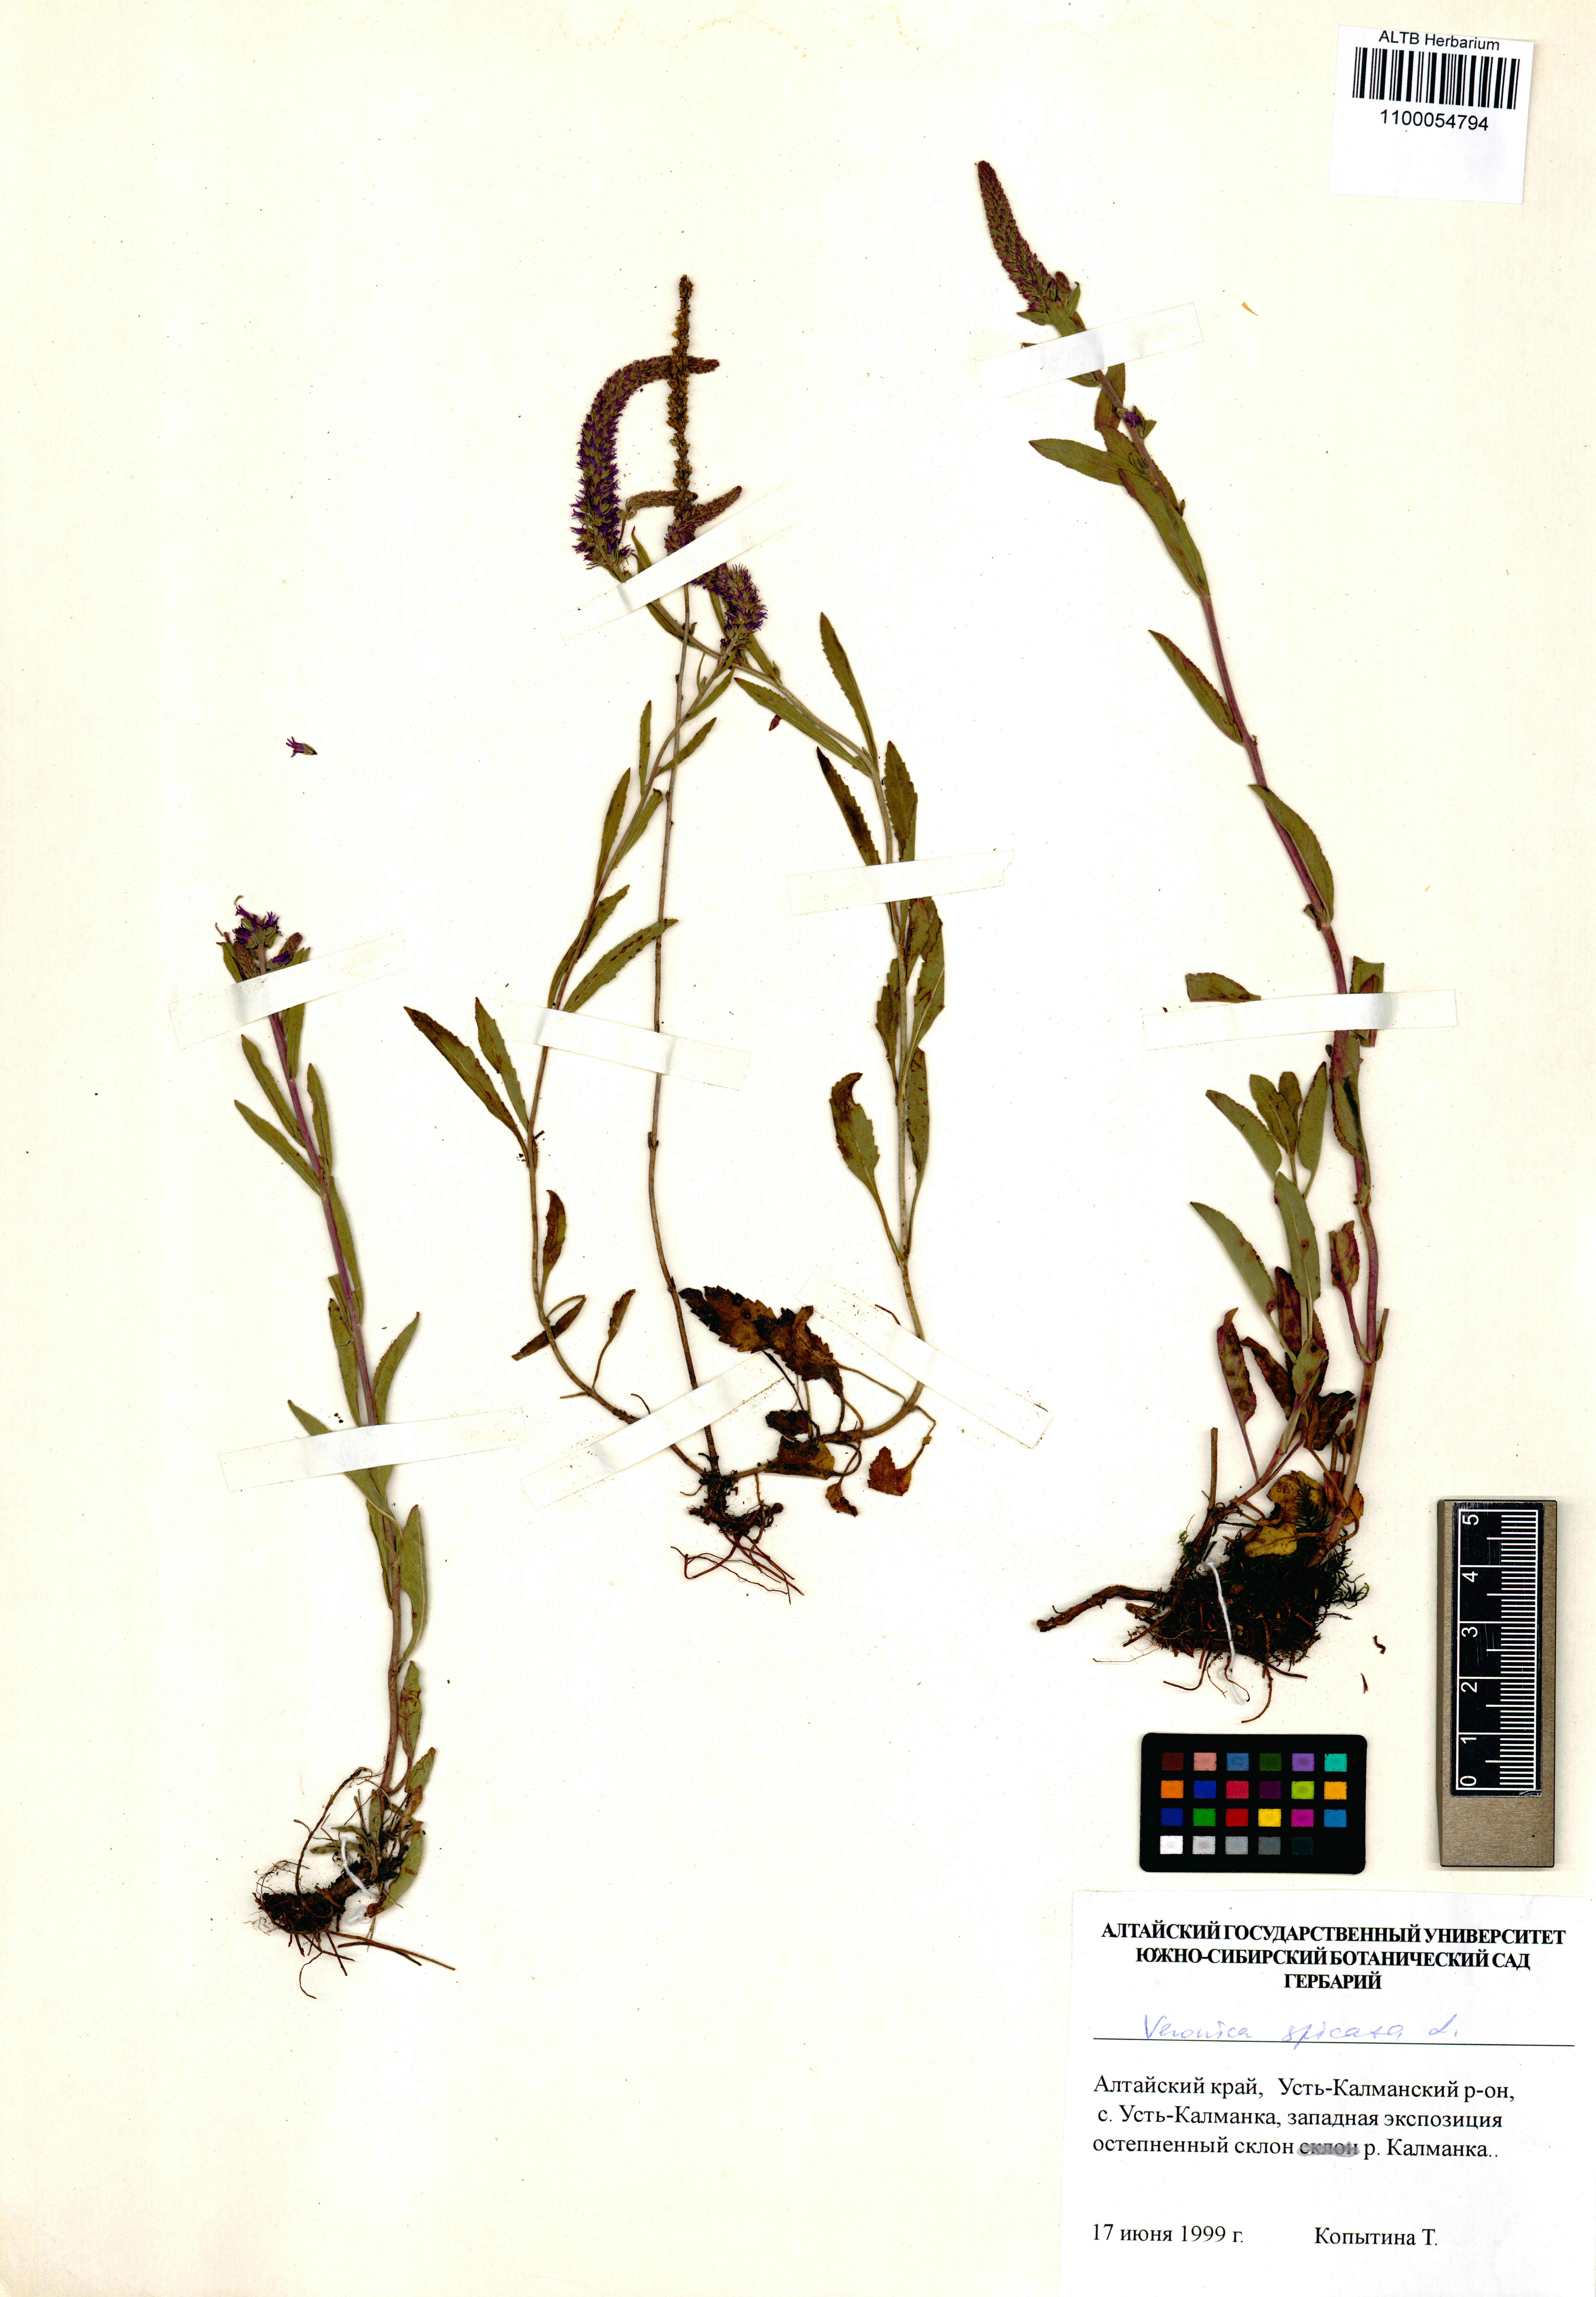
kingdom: Plantae
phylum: Tracheophyta
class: Magnoliopsida
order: Lamiales
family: Plantaginaceae
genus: Veronica
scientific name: Veronica spicata
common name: Spiked speedwell
